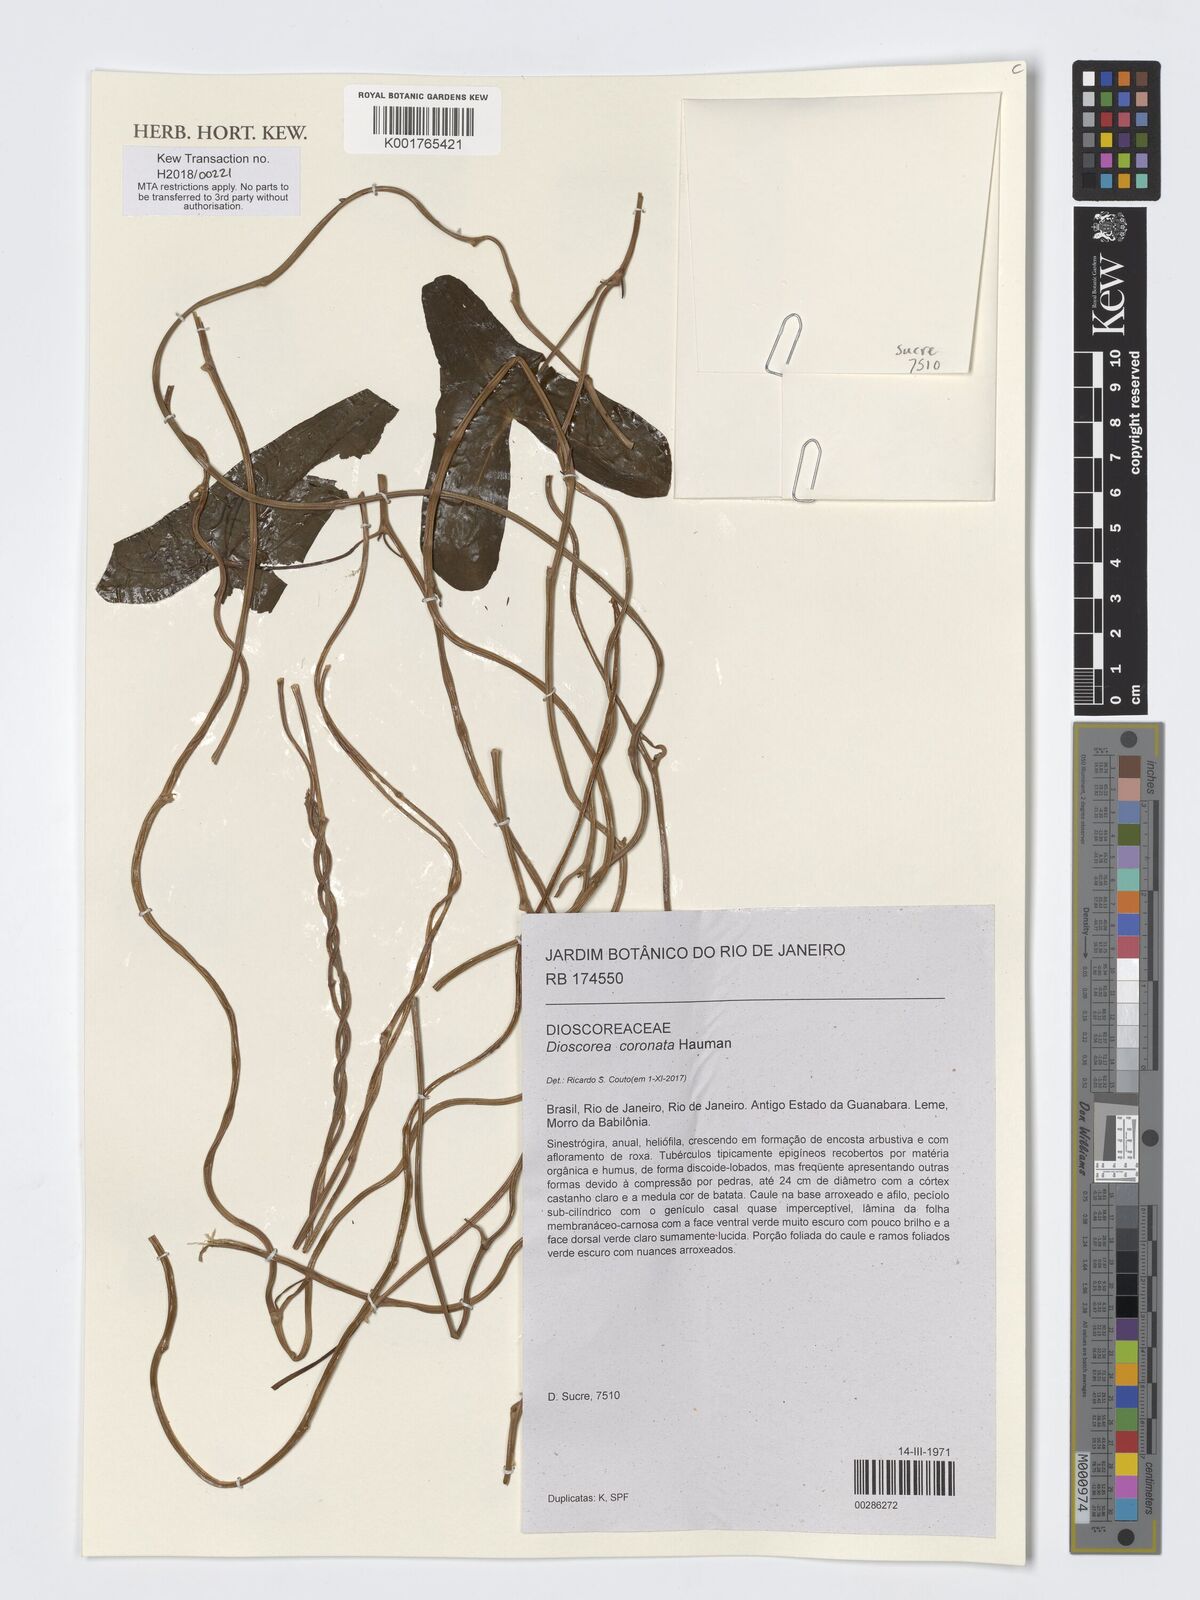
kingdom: Plantae
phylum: Tracheophyta
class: Liliopsida
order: Dioscoreales
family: Dioscoreaceae
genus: Dioscorea
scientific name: Dioscorea coronata
